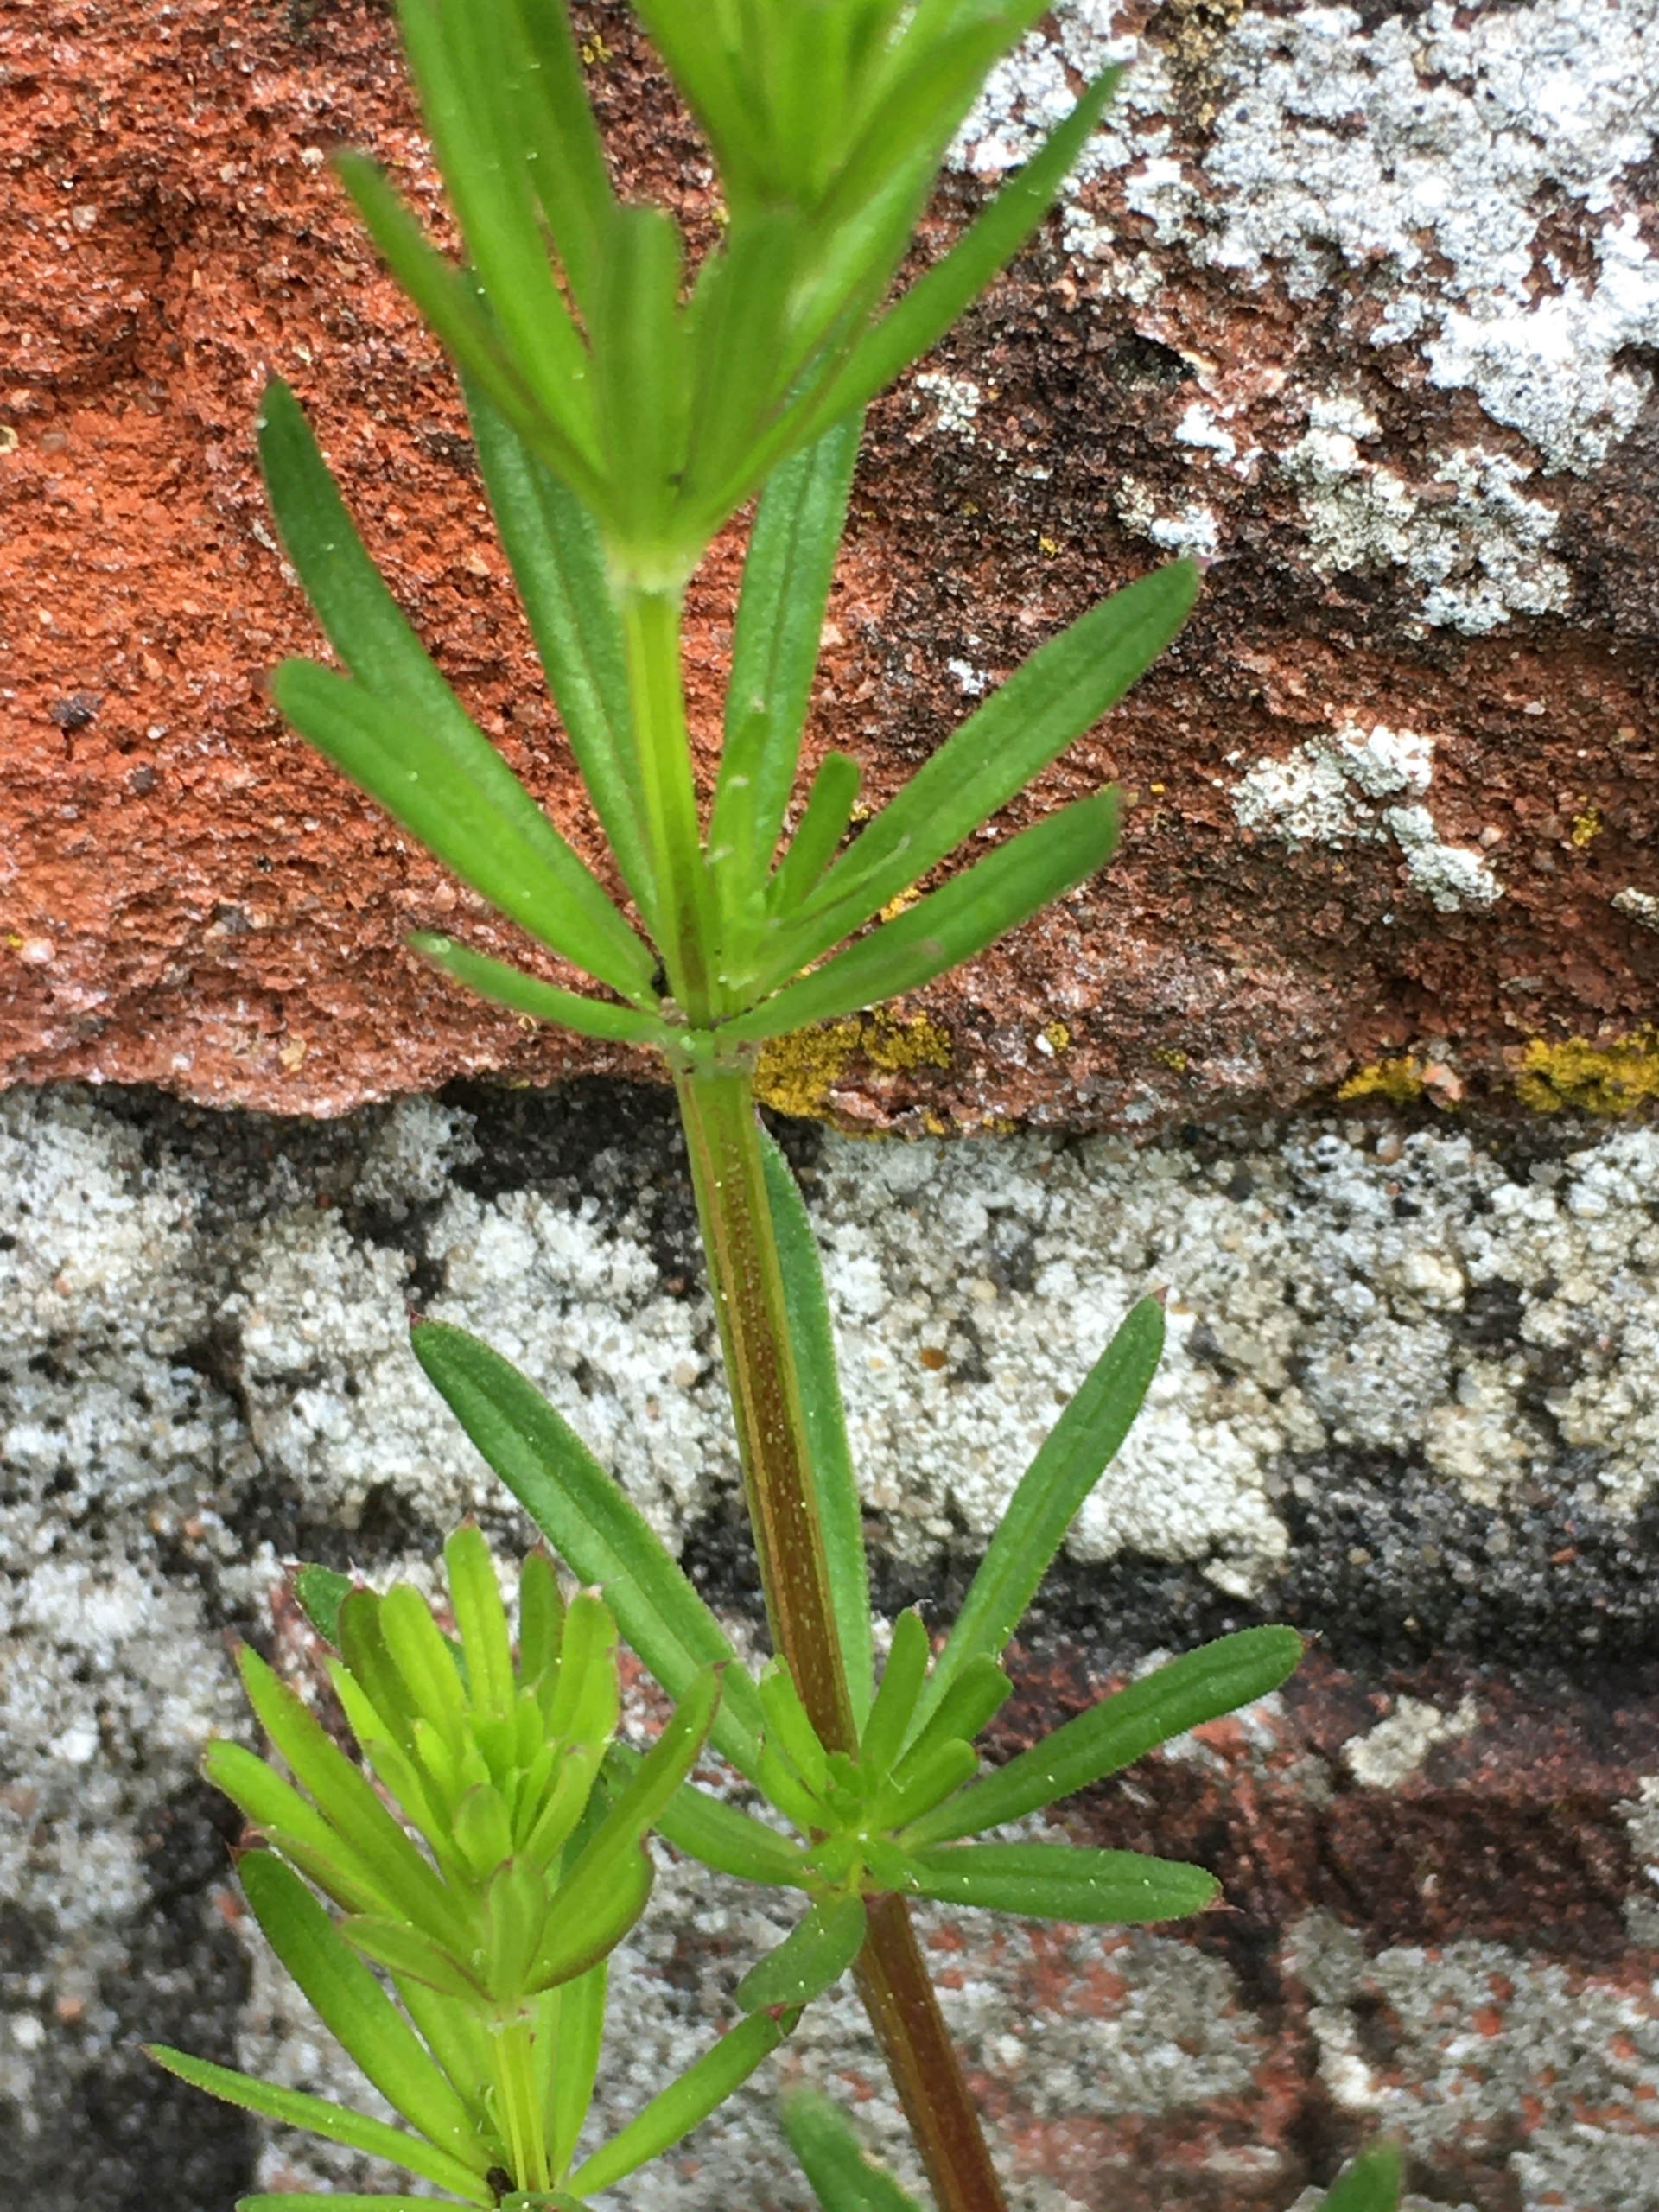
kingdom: Plantae
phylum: Tracheophyta
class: Magnoliopsida
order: Gentianales
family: Rubiaceae
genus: Galium
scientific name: Galium mollugo
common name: Hvid snerre
